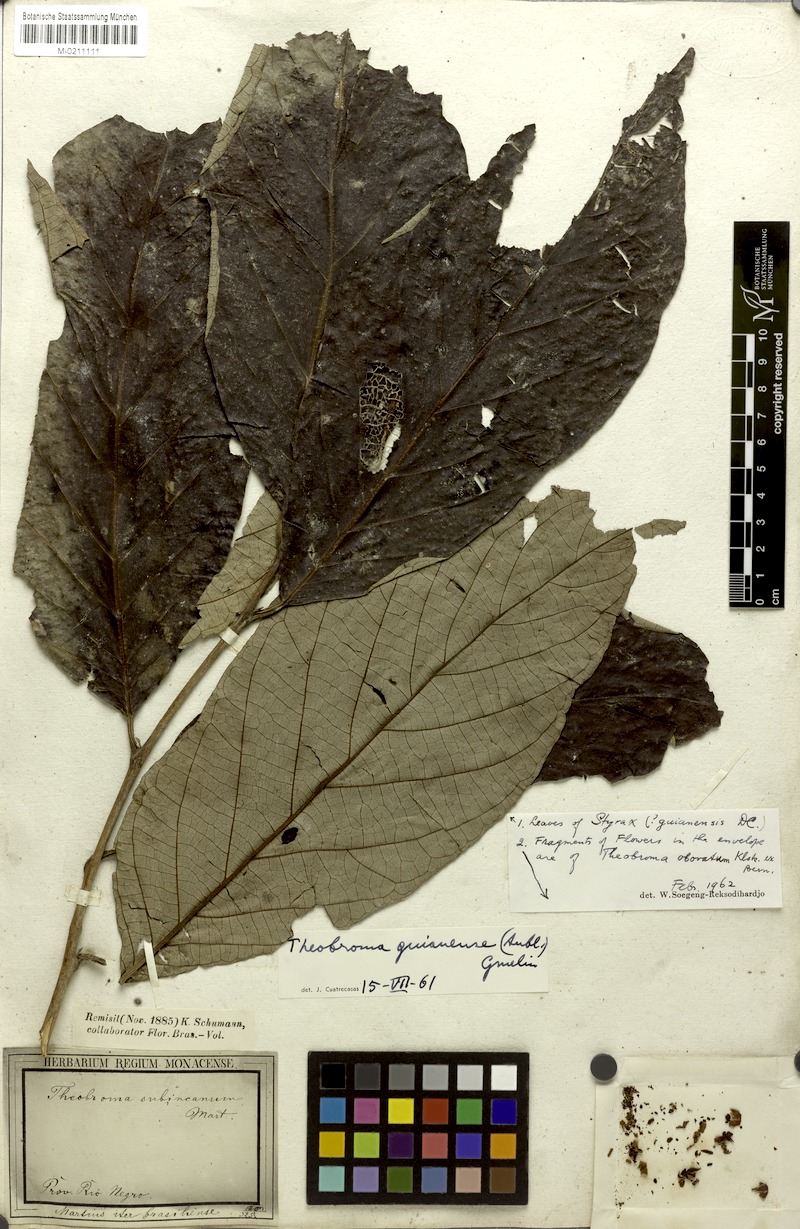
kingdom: Plantae
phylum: Tracheophyta
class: Magnoliopsida
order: Malvales
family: Malvaceae
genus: Theobroma
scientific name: Theobroma subincanum
